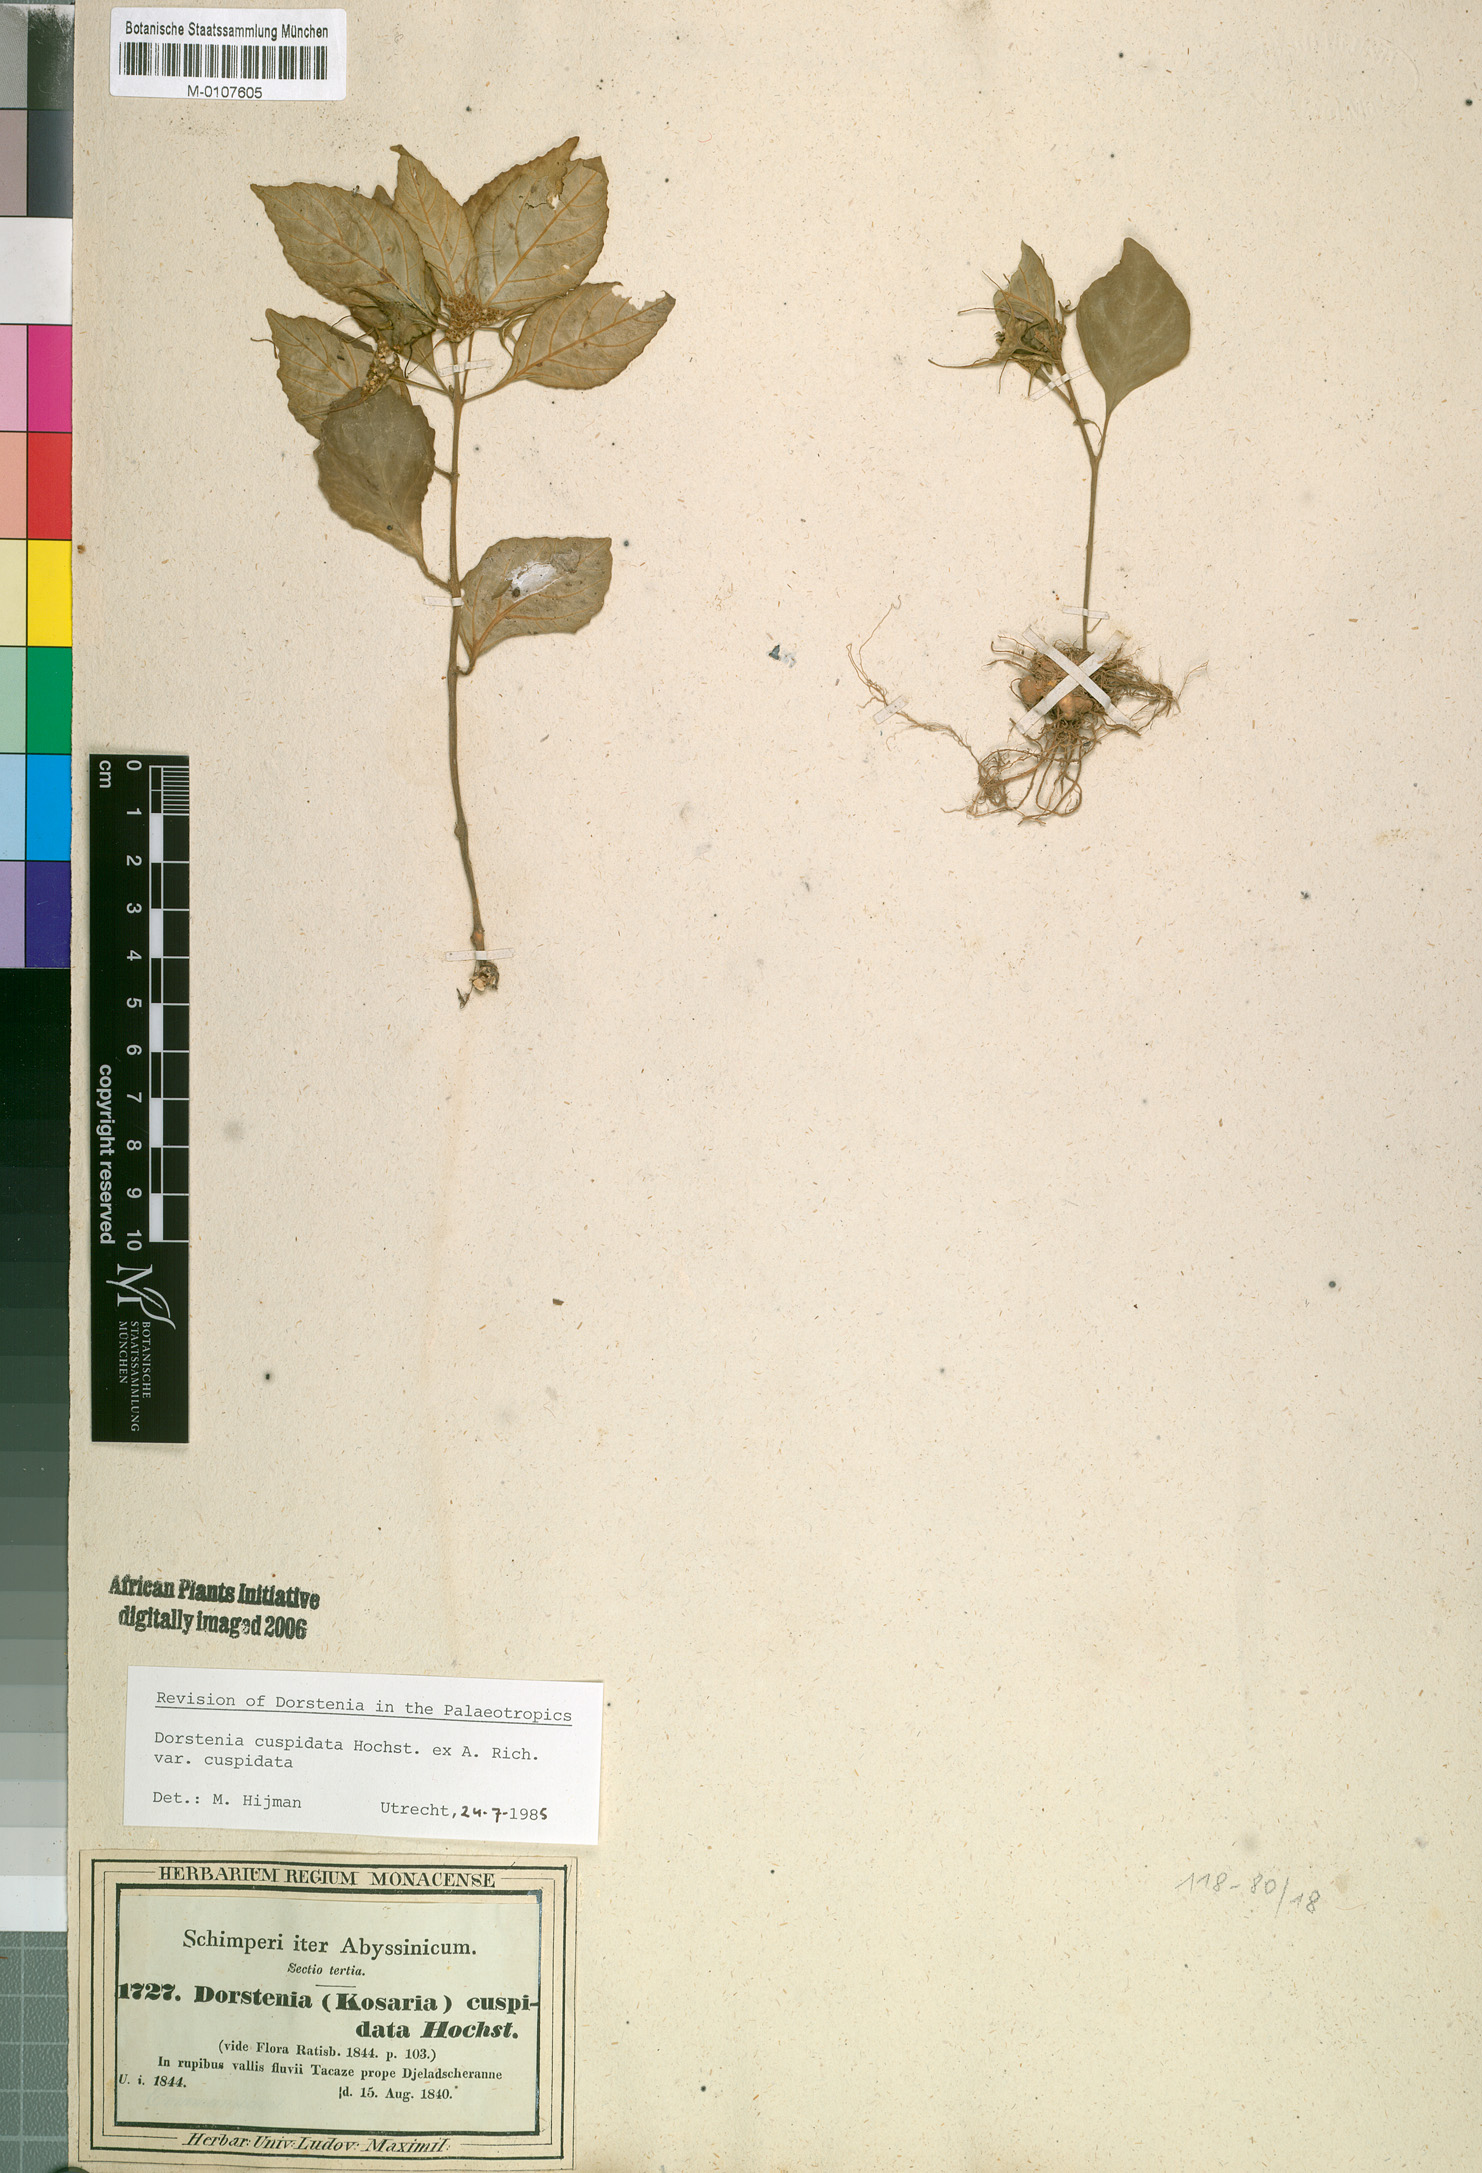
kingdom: Plantae
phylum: Tracheophyta
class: Magnoliopsida
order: Rosales
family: Moraceae
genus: Dorstenia
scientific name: Dorstenia cuspidata
